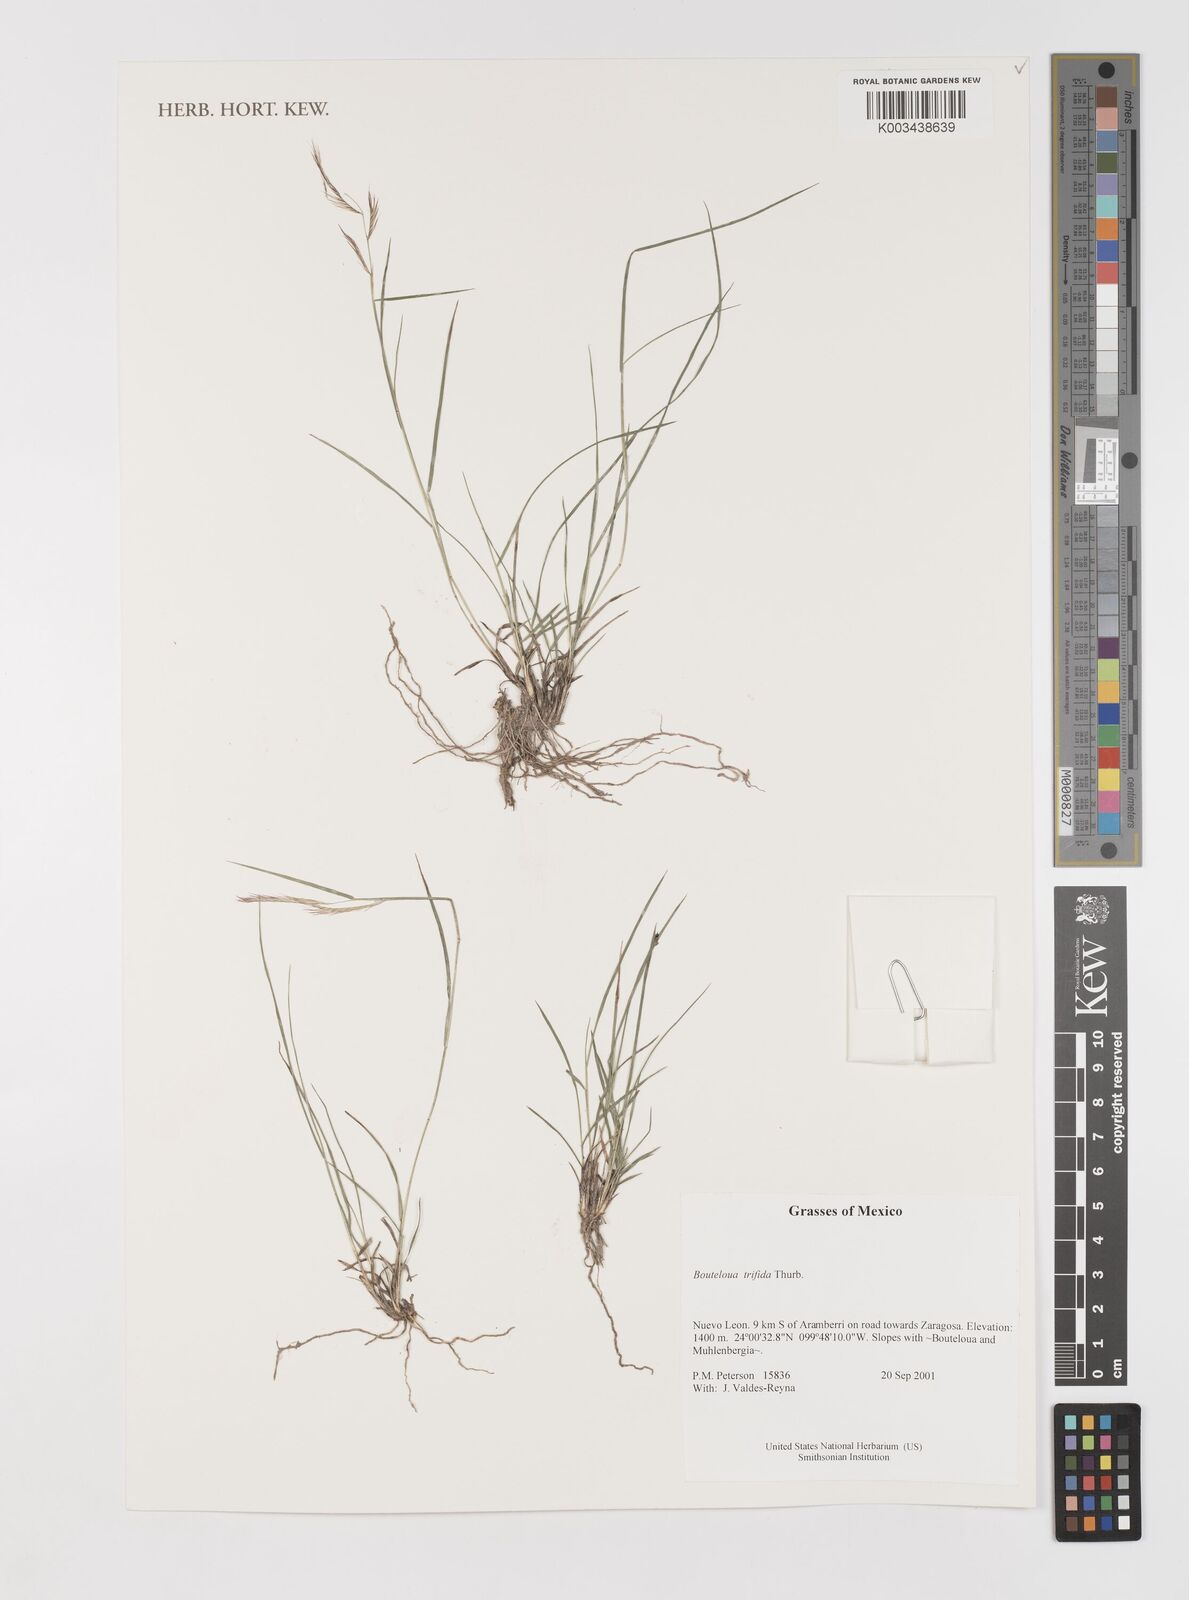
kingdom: Plantae
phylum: Tracheophyta
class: Liliopsida
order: Poales
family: Poaceae
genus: Bouteloua
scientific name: Bouteloua
